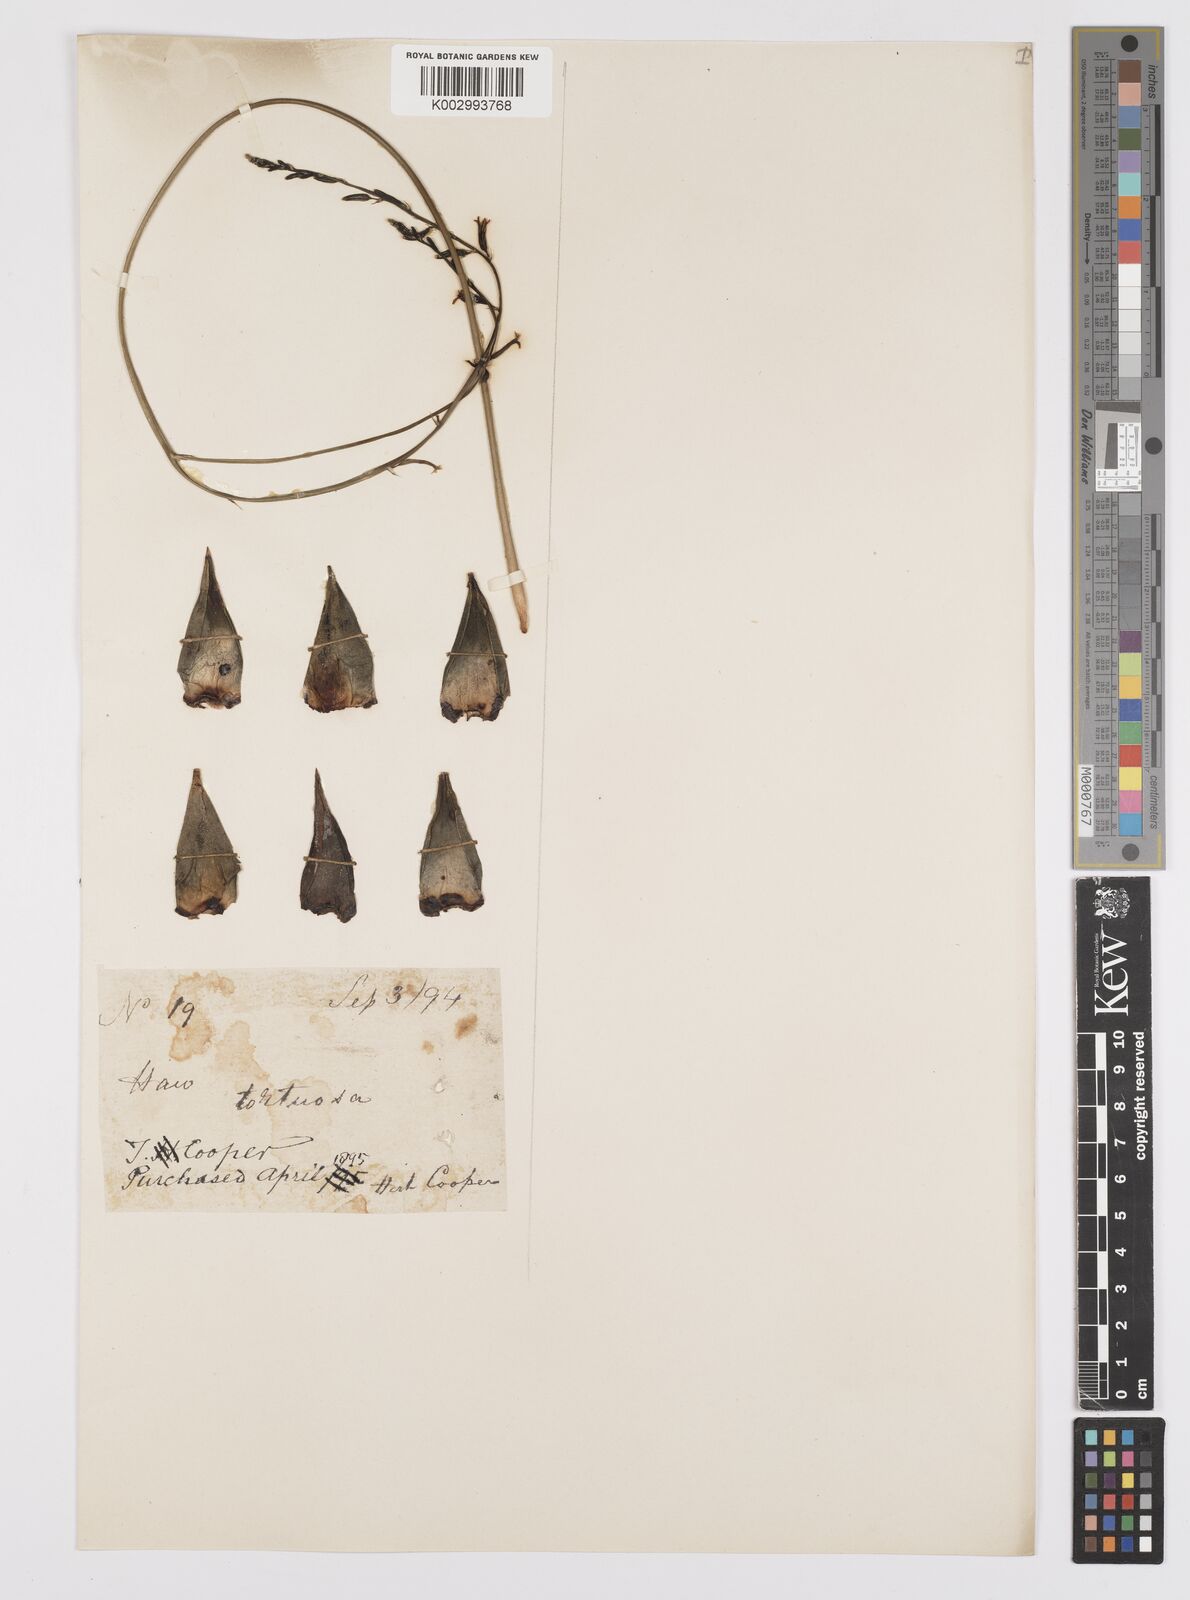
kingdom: Plantae
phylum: Tracheophyta
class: Liliopsida
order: Asparagales
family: Asphodelaceae
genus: Haworthiopsis
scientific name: Haworthiopsis tortuosa
